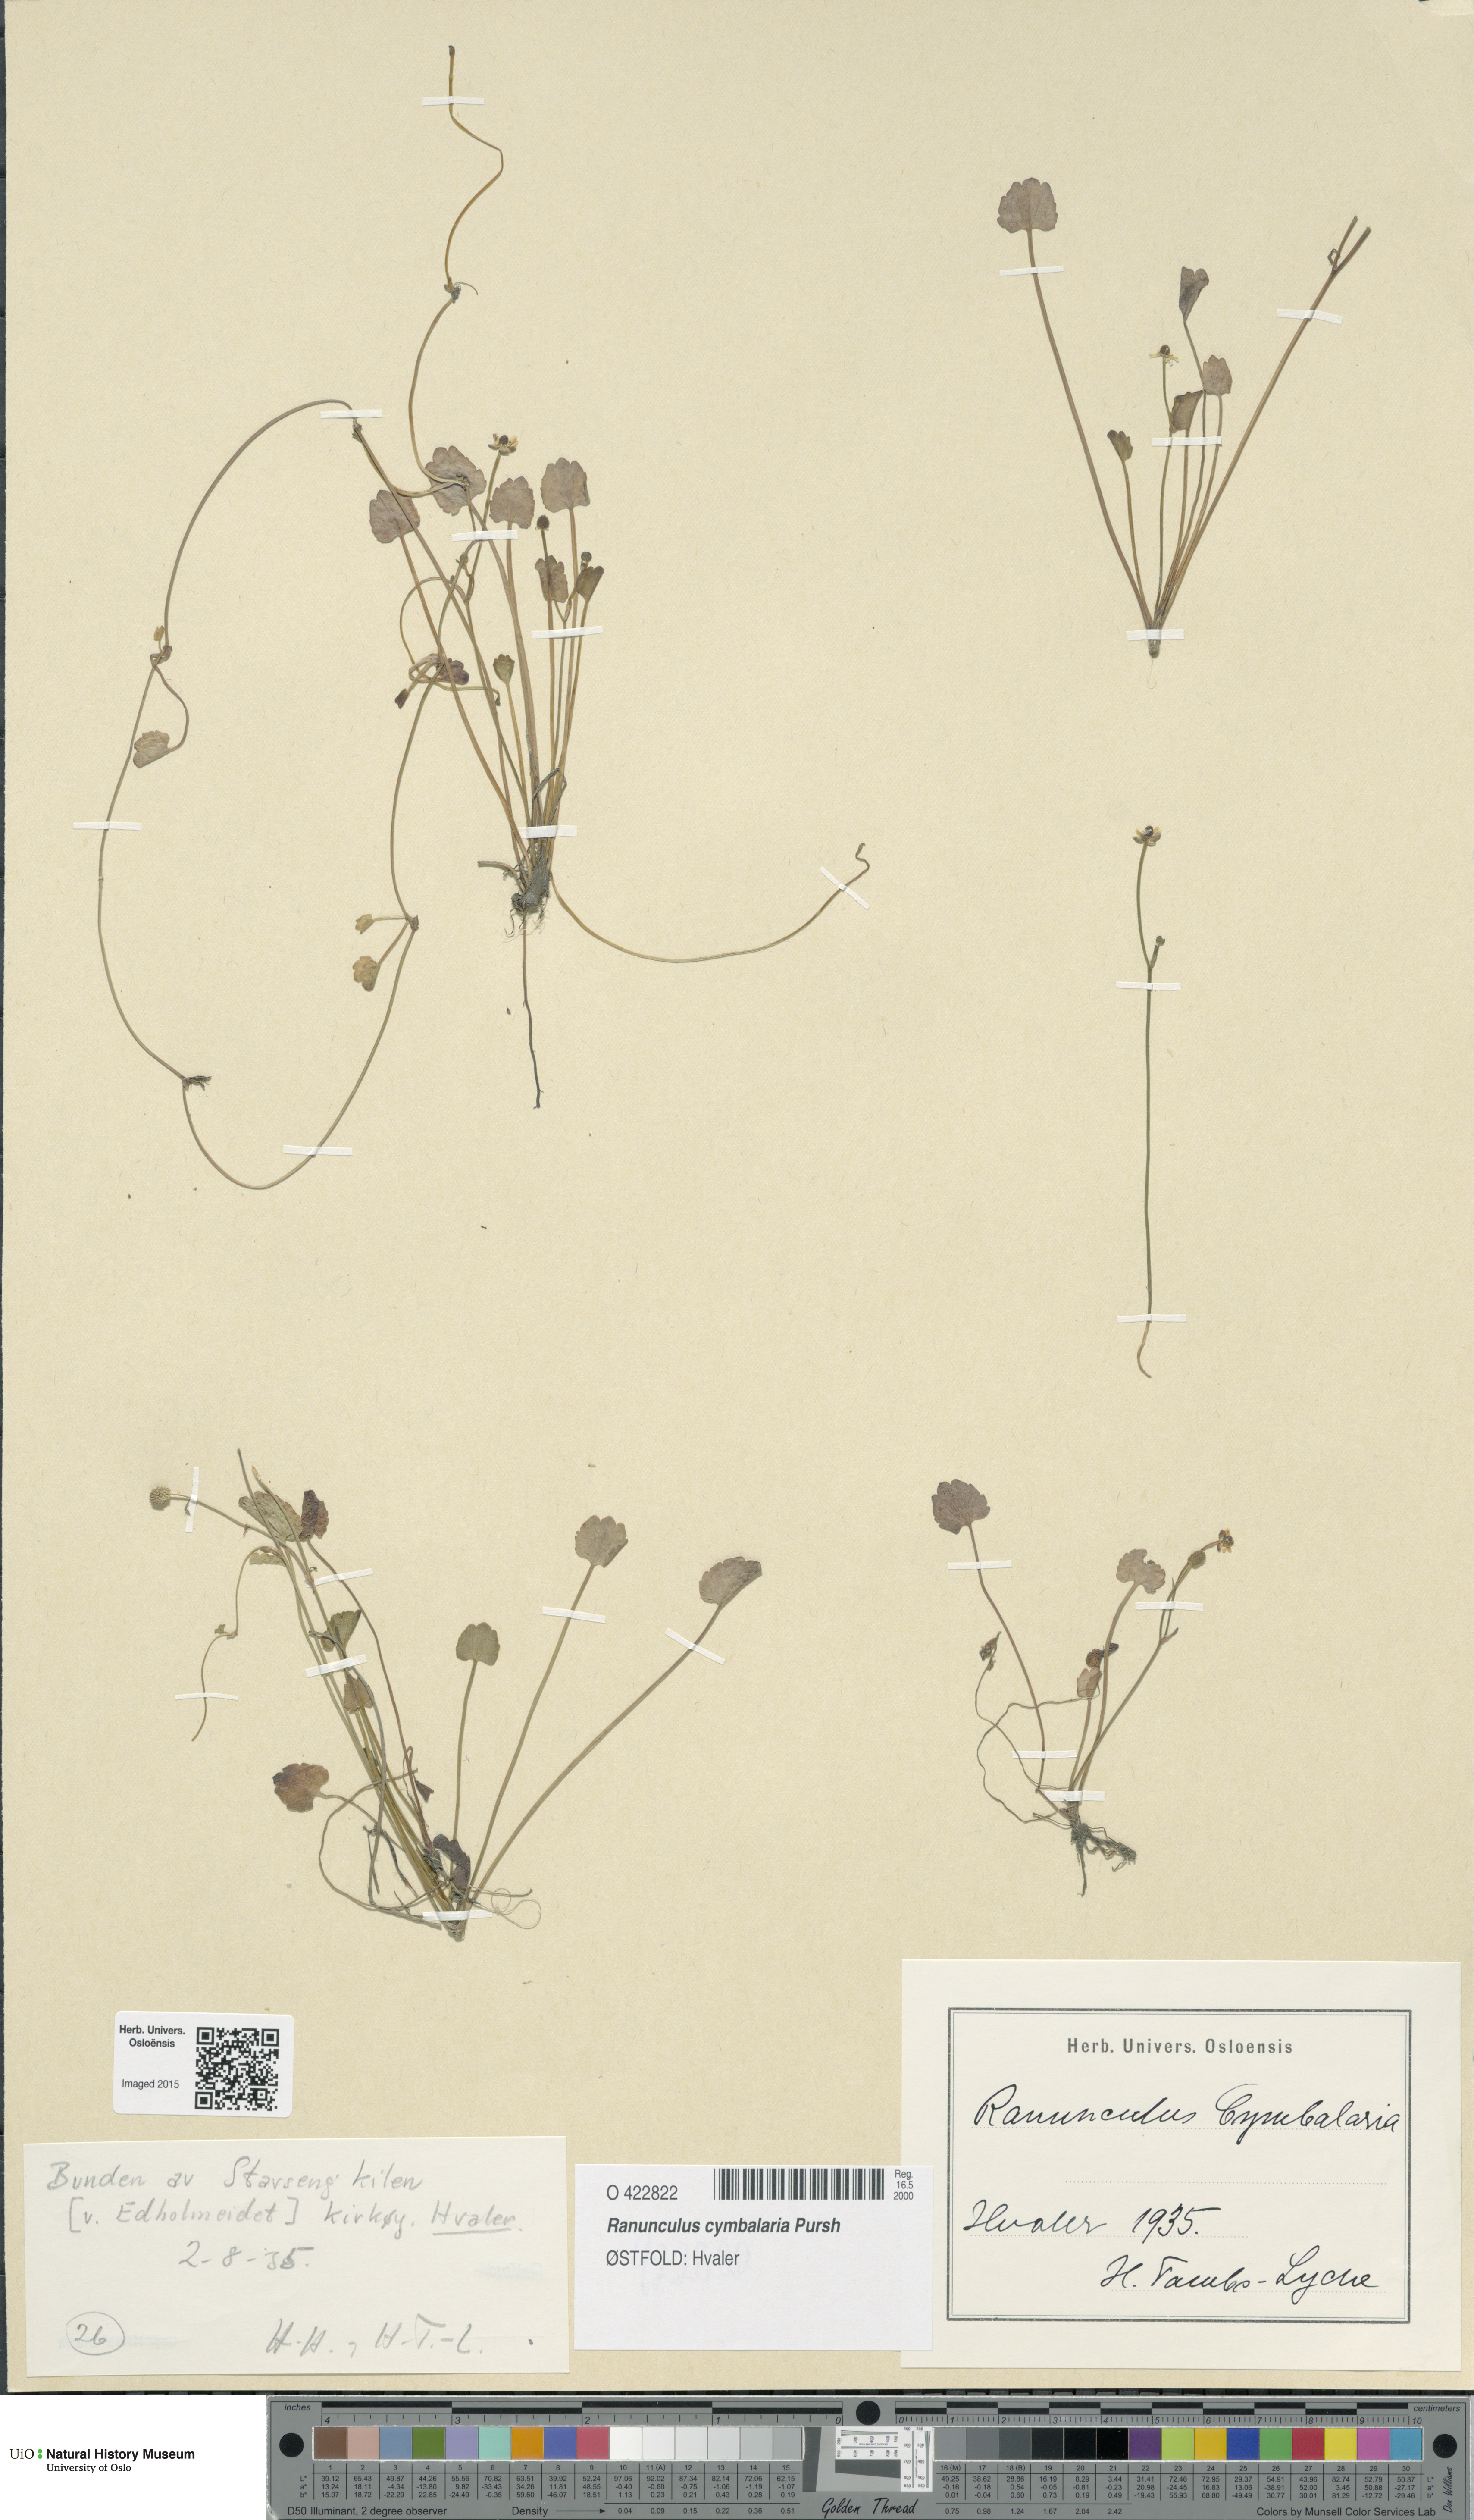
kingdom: Plantae
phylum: Tracheophyta
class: Magnoliopsida
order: Ranunculales
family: Ranunculaceae
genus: Halerpestes
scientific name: Halerpestes cymbalaria
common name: Seaside crowfoot
